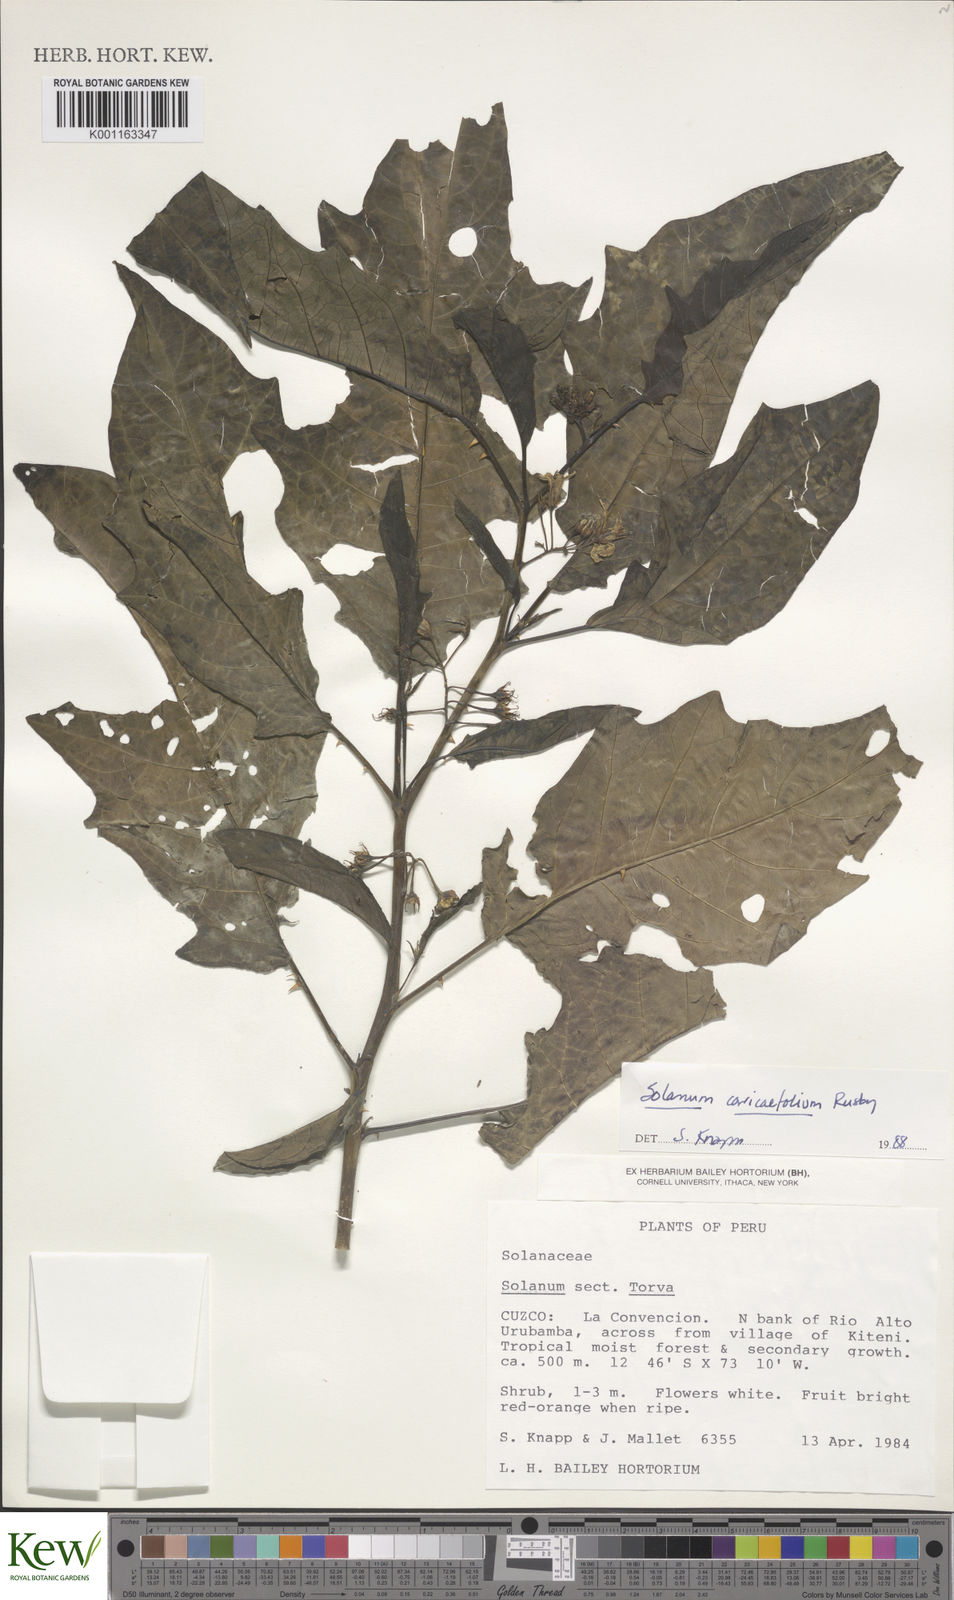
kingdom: Plantae
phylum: Tracheophyta
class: Magnoliopsida
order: Solanales
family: Solanaceae
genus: Solanum
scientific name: Solanum caricaefolium
